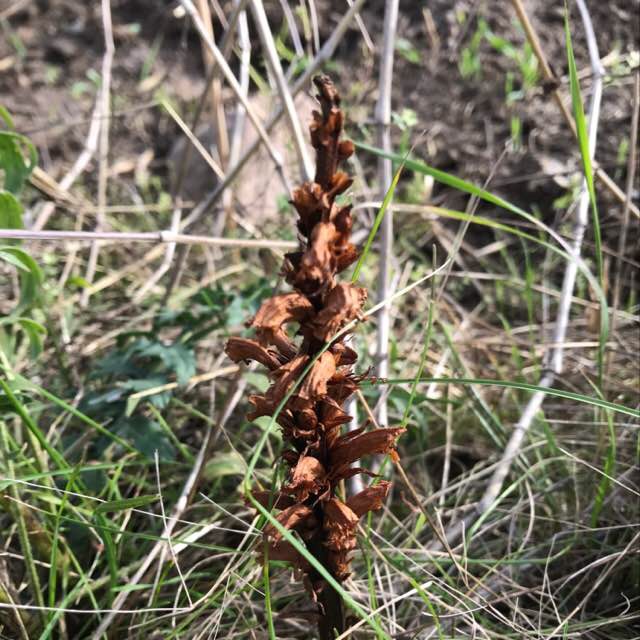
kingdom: Plantae
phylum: Tracheophyta
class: Magnoliopsida
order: Lamiales
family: Orobanchaceae
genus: Orobanche
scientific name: Orobanche elatior
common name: Stor gyvelkvæler
